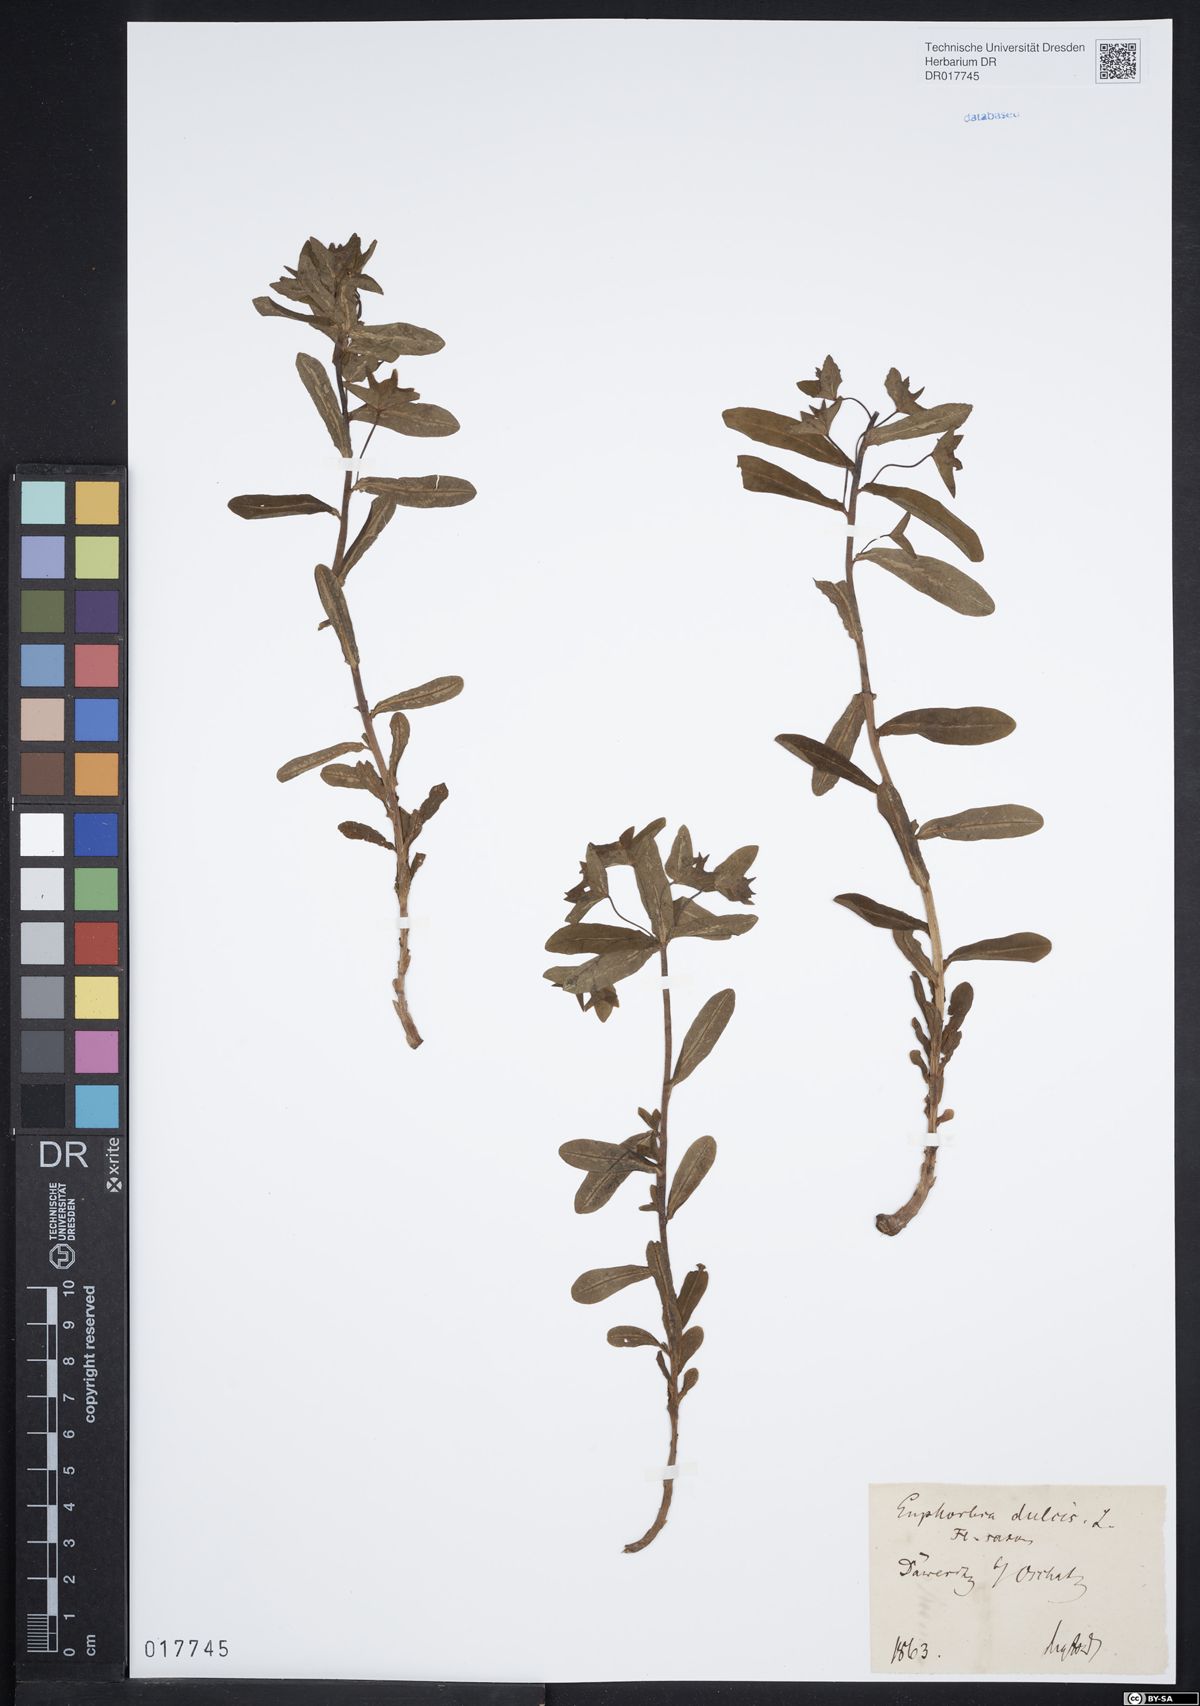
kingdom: Plantae
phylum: Tracheophyta
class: Magnoliopsida
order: Malpighiales
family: Euphorbiaceae
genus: Euphorbia
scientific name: Euphorbia dulcis
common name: Sweet spurge
